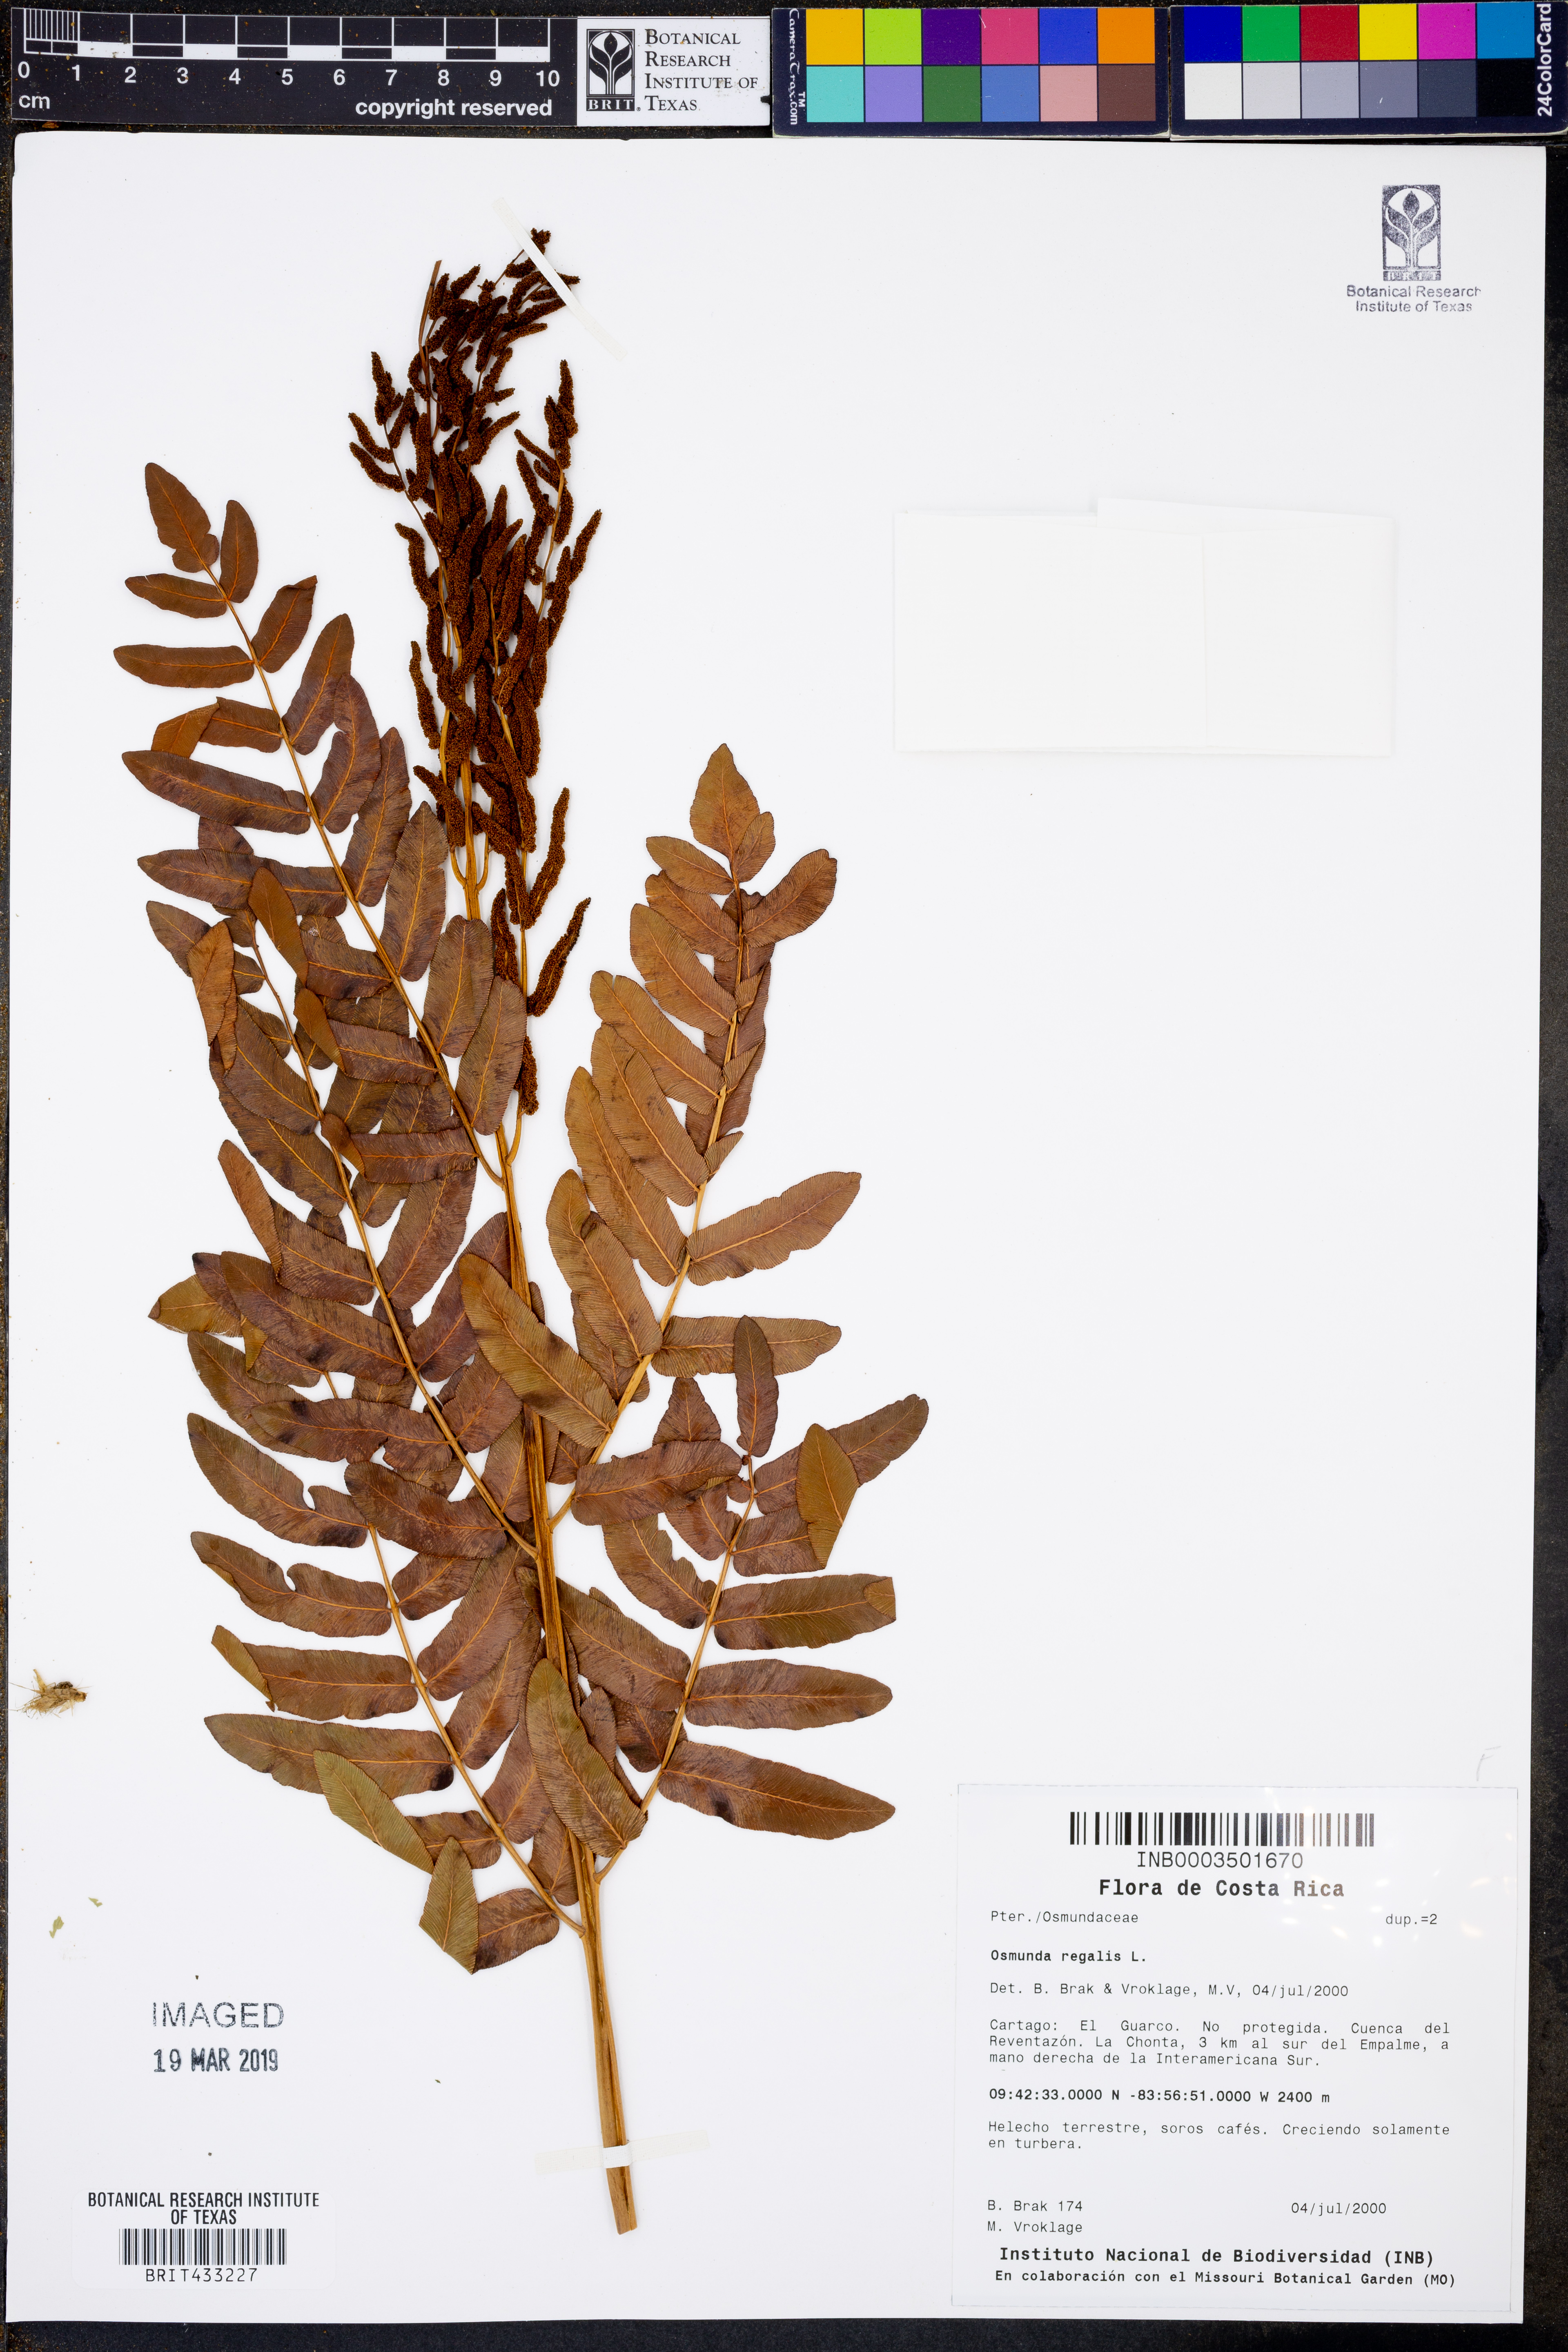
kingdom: Plantae
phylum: Tracheophyta
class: Polypodiopsida
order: Osmundales
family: Osmundaceae
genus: Osmunda
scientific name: Osmunda regalis
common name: Royal fern
